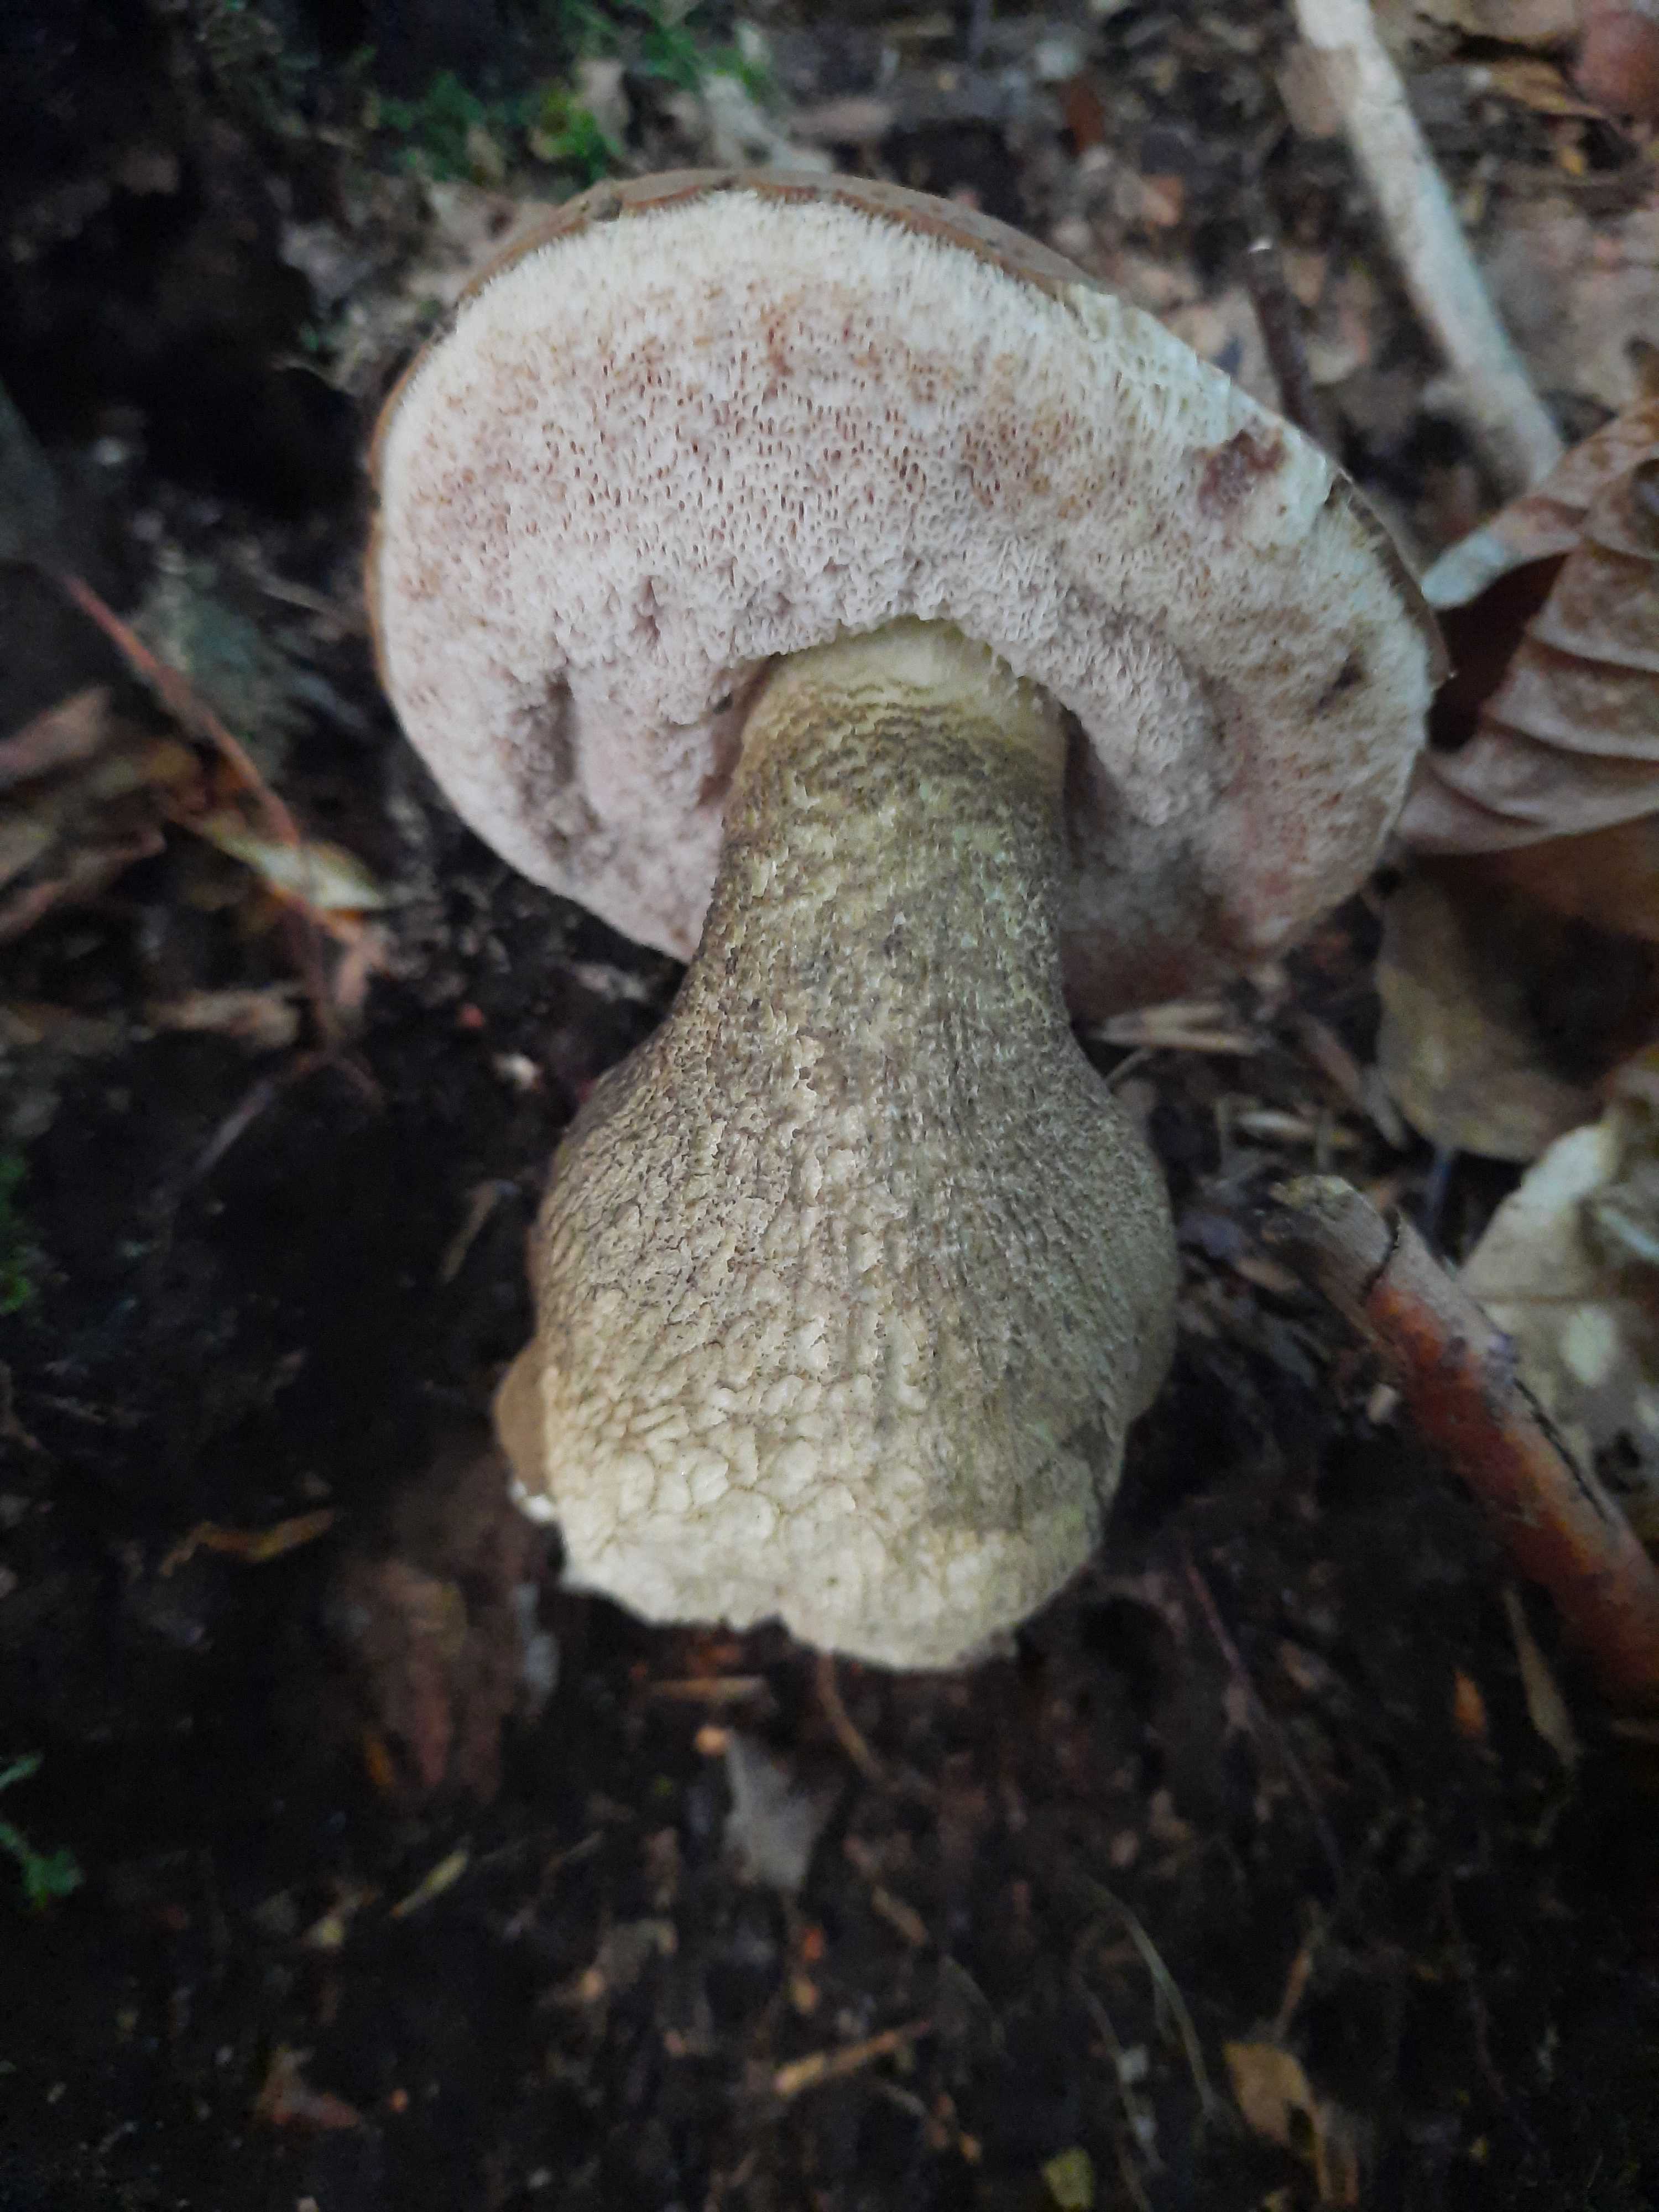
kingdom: Fungi
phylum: Basidiomycota
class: Agaricomycetes
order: Boletales
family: Boletaceae
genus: Tylopilus
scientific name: Tylopilus felleus
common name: galderørhat
